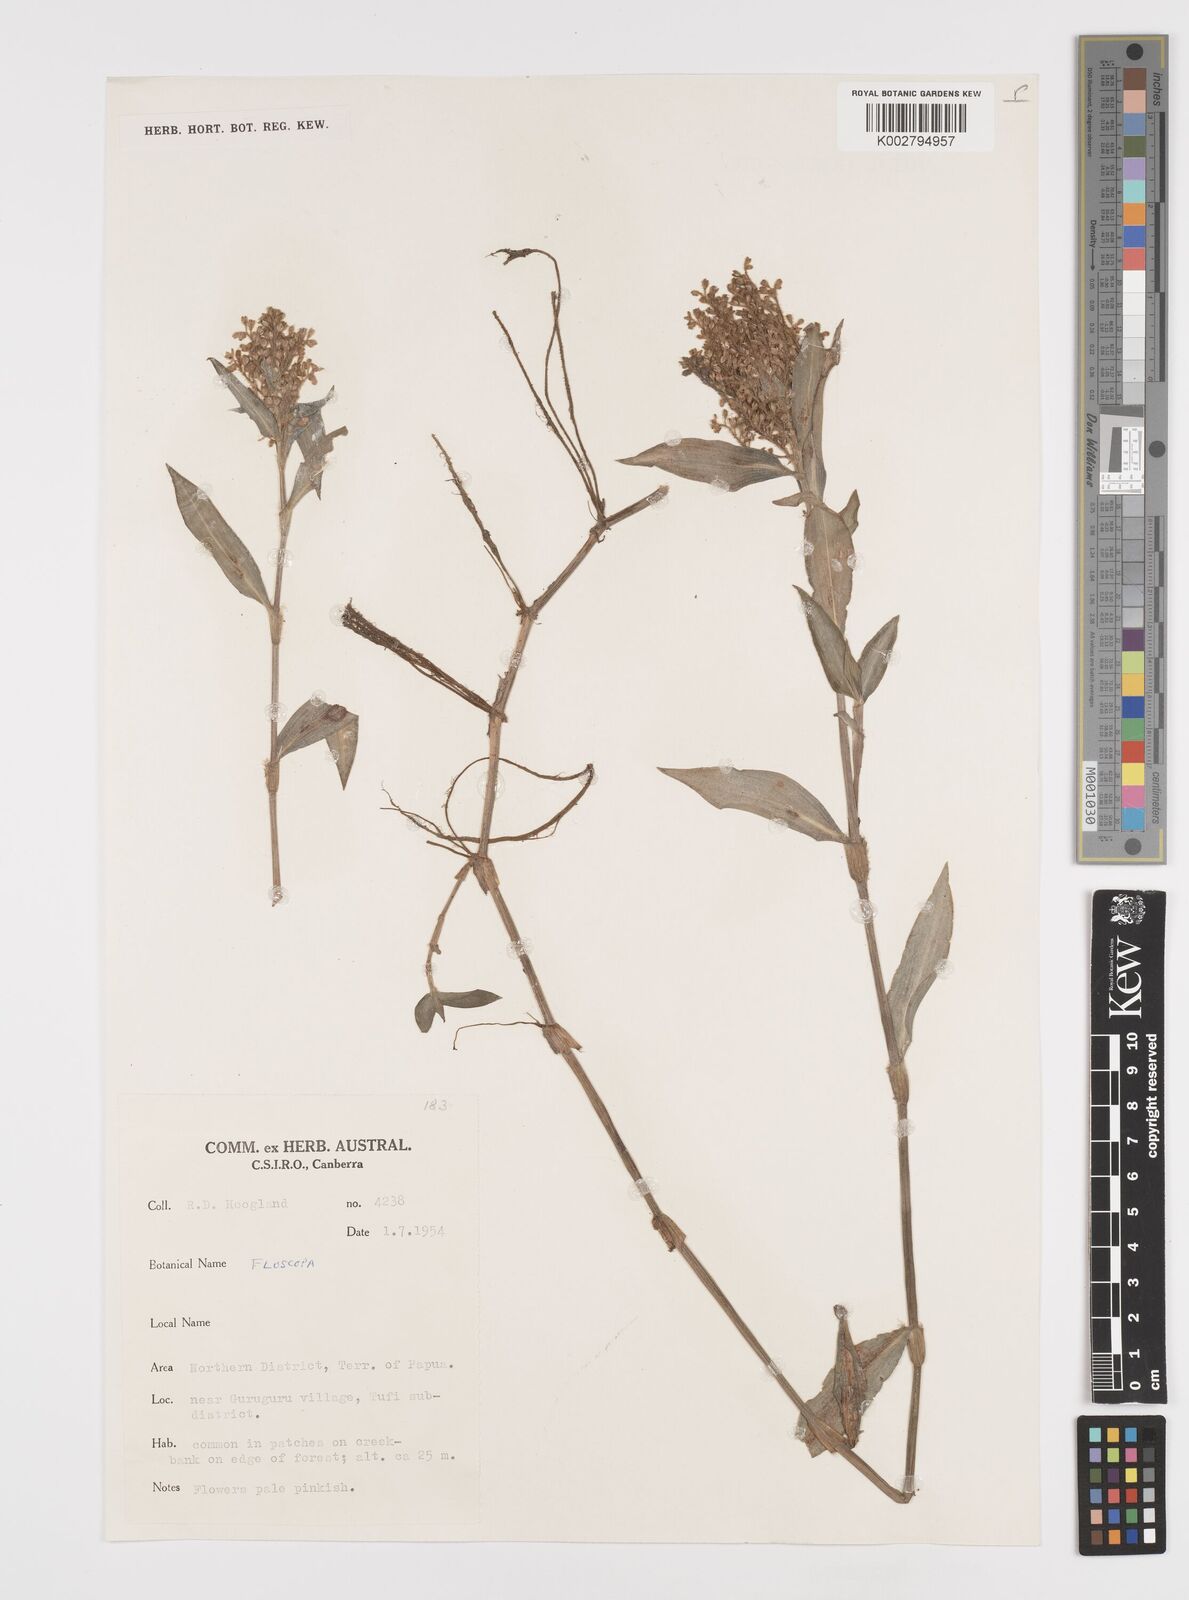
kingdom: Plantae
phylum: Tracheophyta
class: Liliopsida
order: Commelinales
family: Commelinaceae
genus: Floscopa
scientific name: Floscopa
